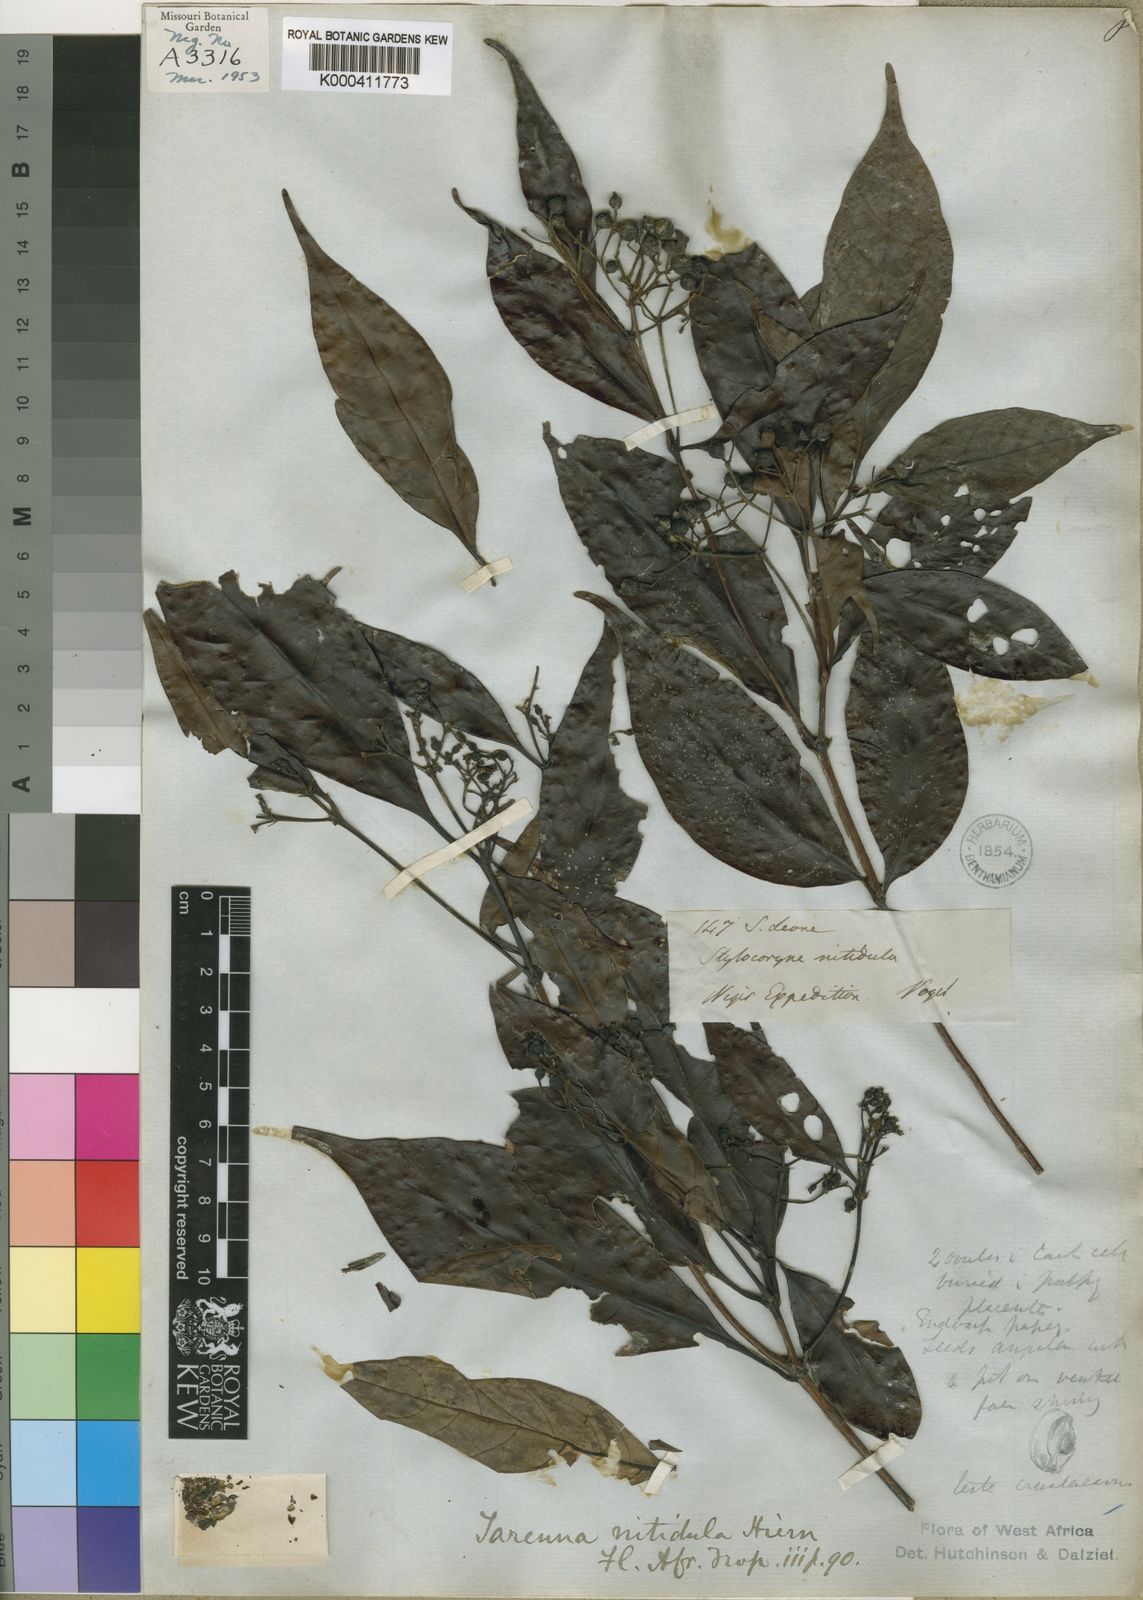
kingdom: Plantae
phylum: Tracheophyta
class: Magnoliopsida
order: Gentianales
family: Rubiaceae
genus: Tarenna
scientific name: Tarenna nitidula
